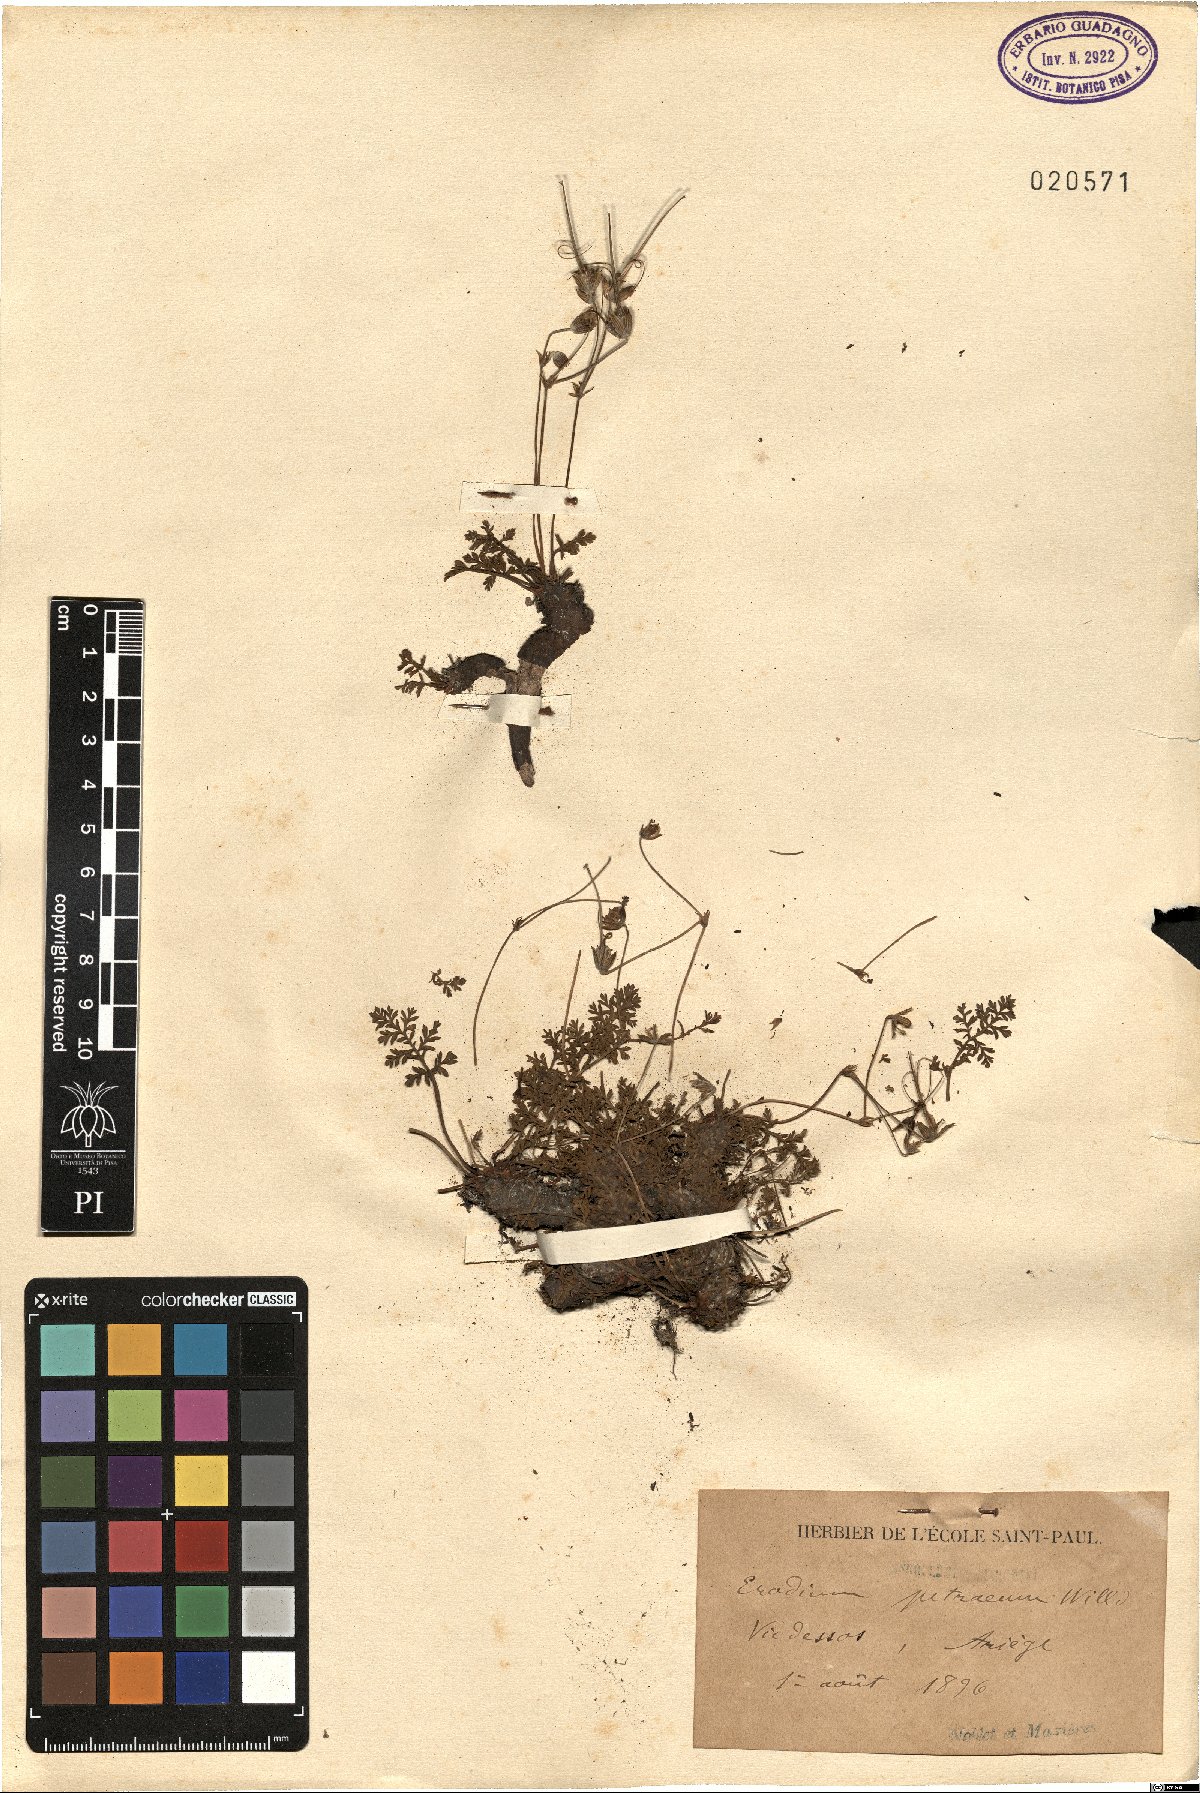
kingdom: Plantae
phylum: Tracheophyta
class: Magnoliopsida
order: Geraniales
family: Geraniaceae
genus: Erodium
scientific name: Erodium foetidum
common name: Rock stork's-bill
